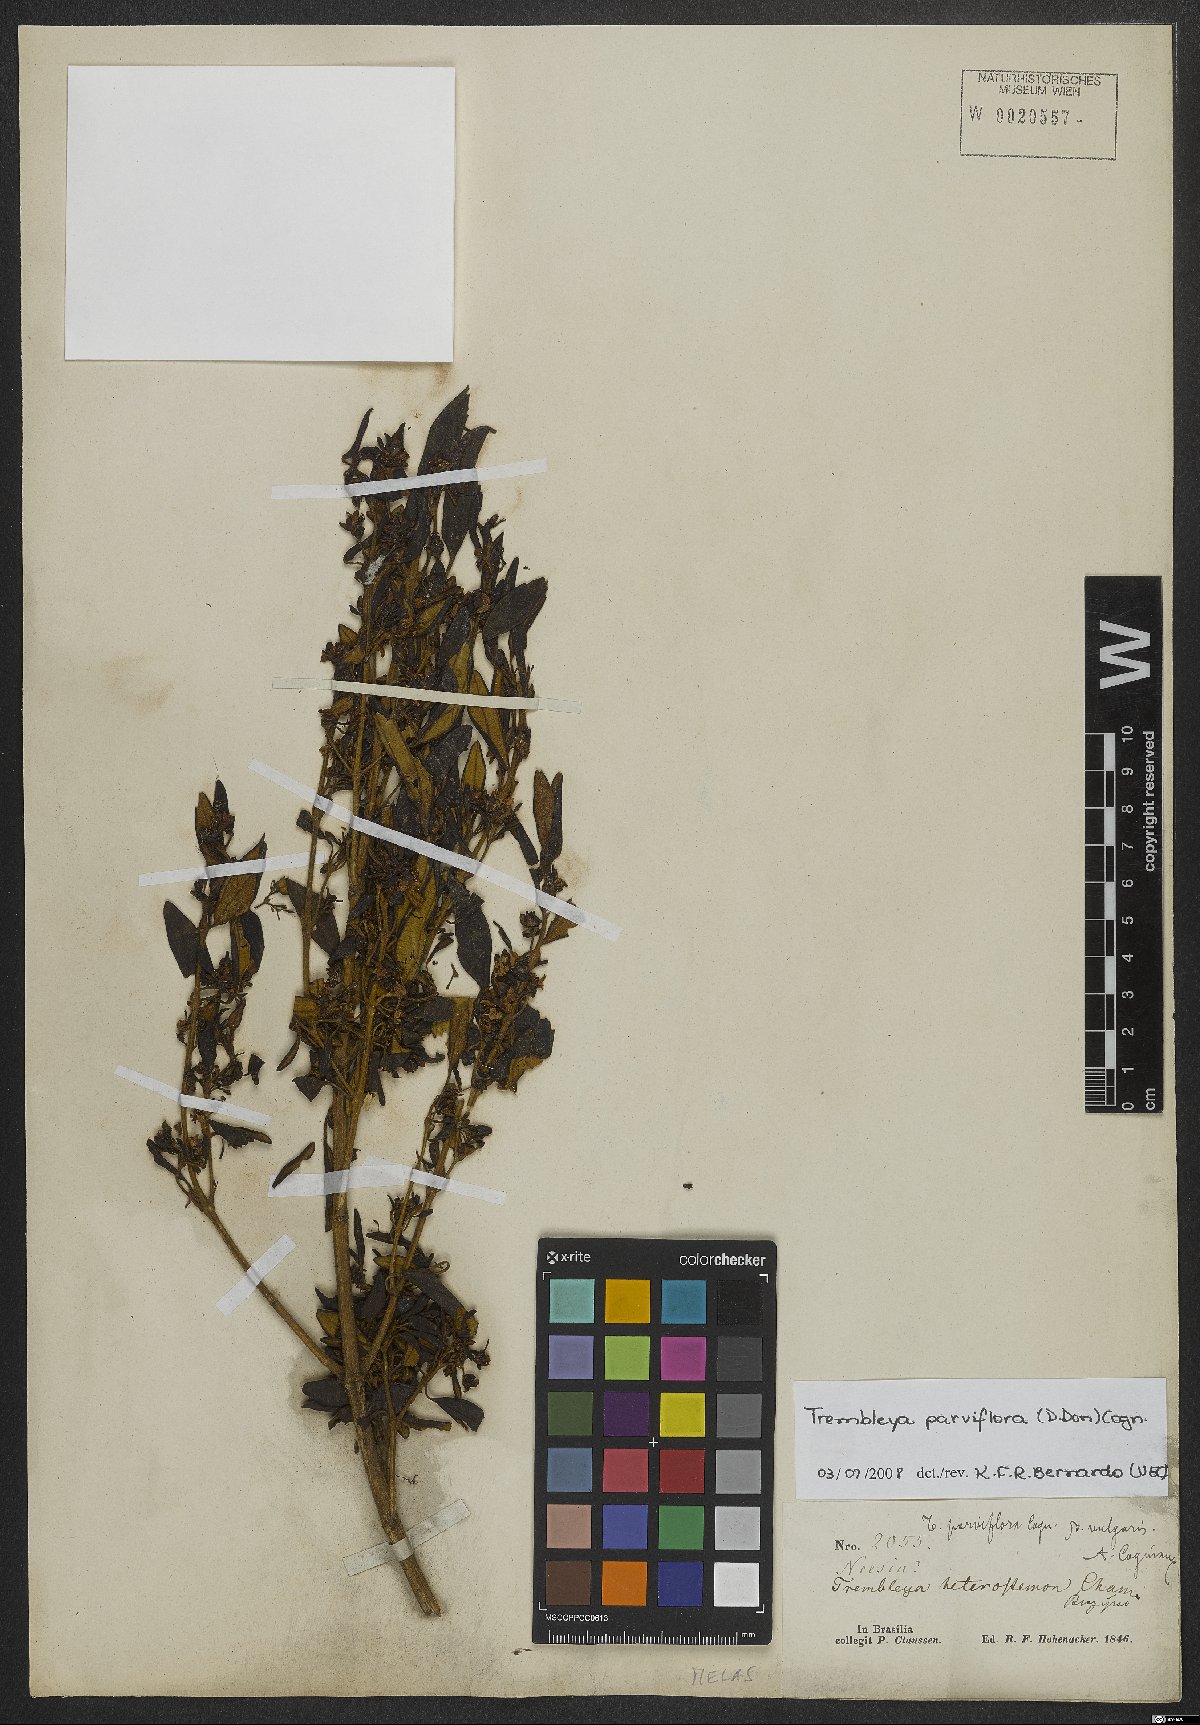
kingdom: Plantae
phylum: Tracheophyta
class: Magnoliopsida
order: Myrtales
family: Melastomataceae
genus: Microlicia
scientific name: Microlicia parviflora
